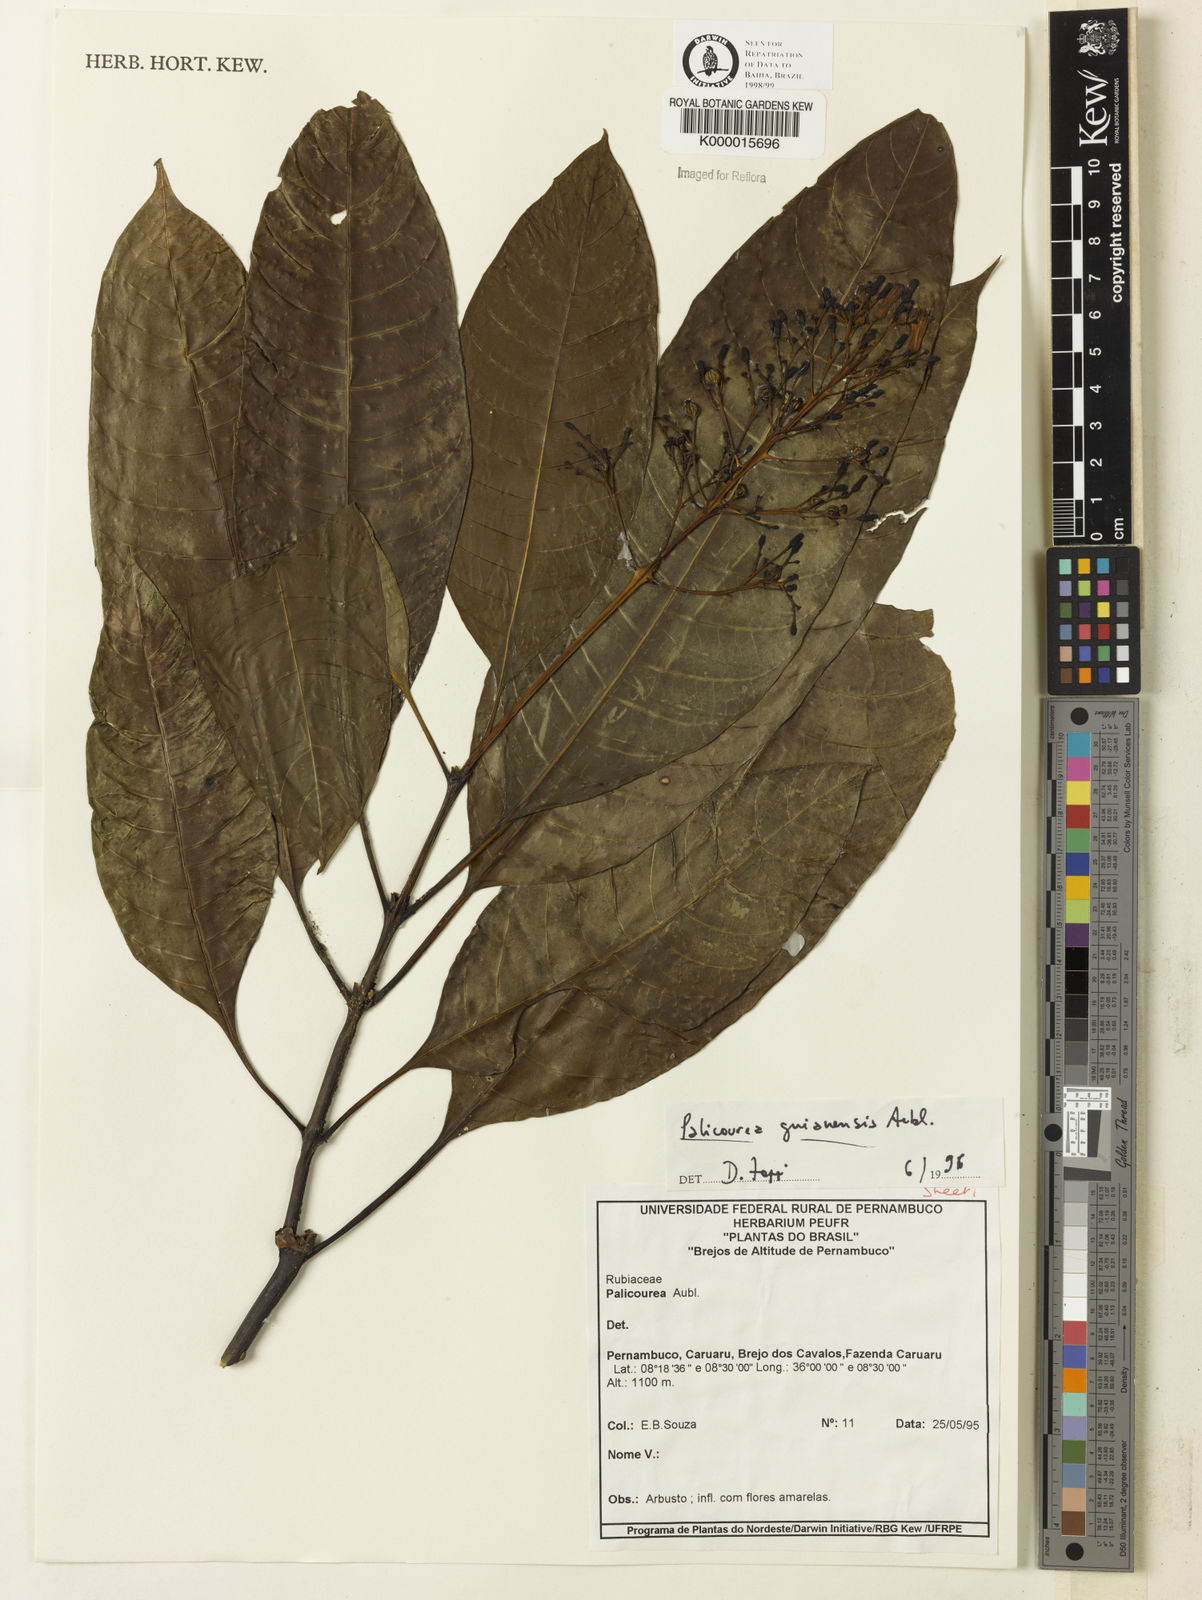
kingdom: Plantae
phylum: Tracheophyta
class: Magnoliopsida
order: Gentianales
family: Rubiaceae
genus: Palicourea
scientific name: Palicourea guianensis
